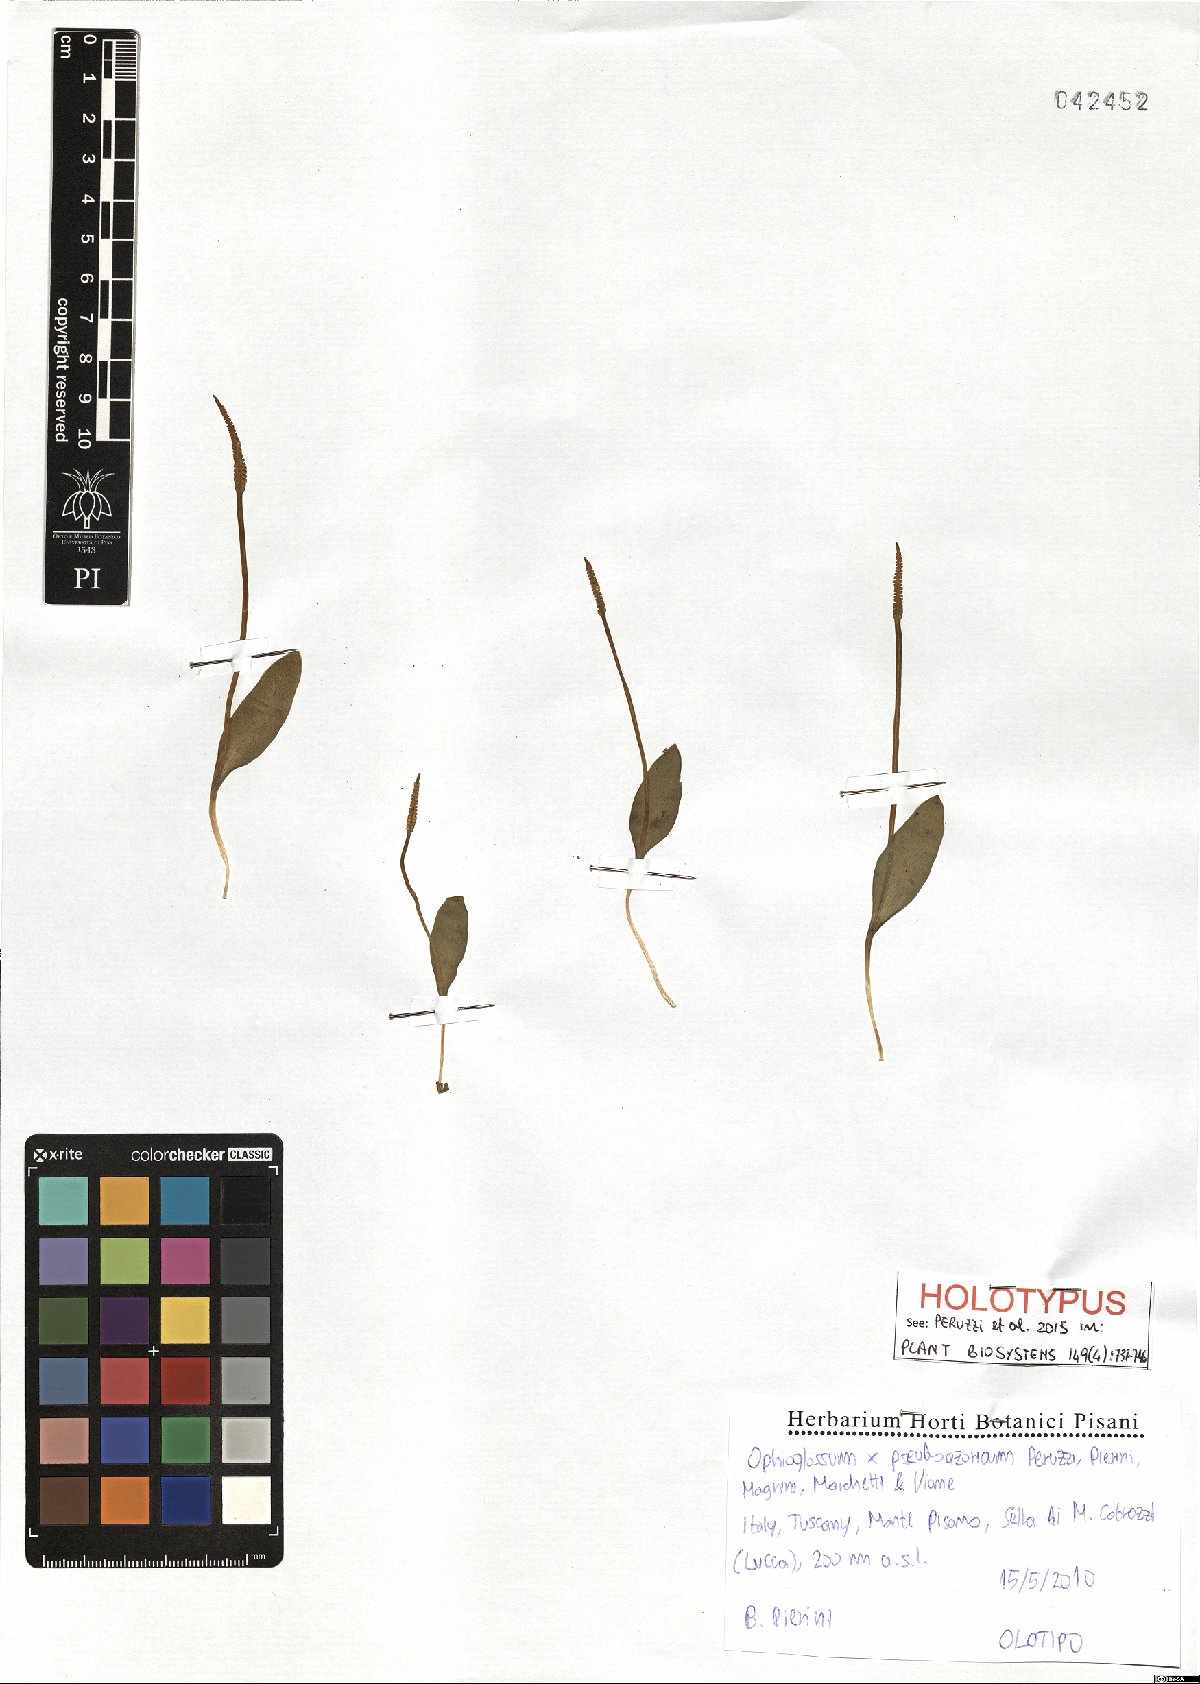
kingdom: Plantae
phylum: Tracheophyta
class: Polypodiopsida
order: Ophioglossales
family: Ophioglossaceae
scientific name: Ophioglossaceae
